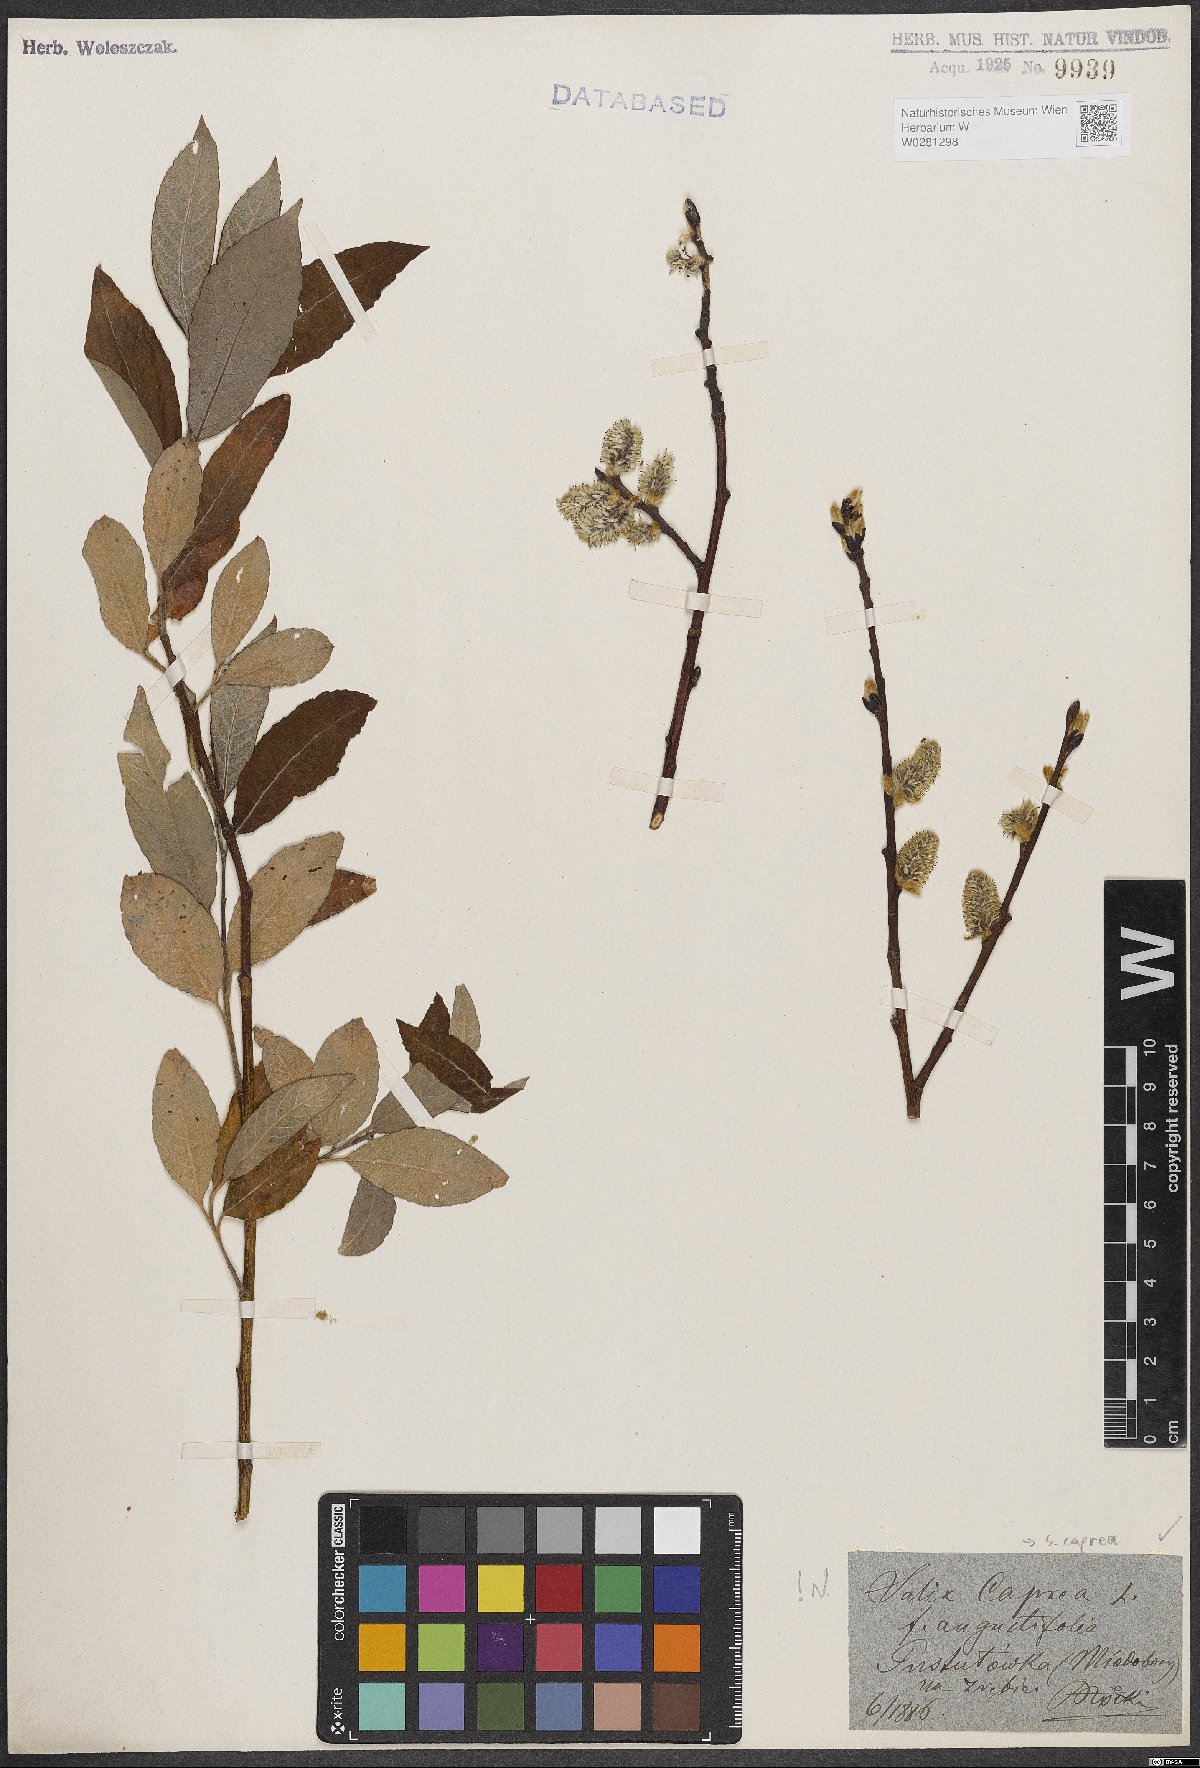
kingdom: Plantae
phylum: Tracheophyta
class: Magnoliopsida
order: Malpighiales
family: Salicaceae
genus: Salix
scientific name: Salix caprea
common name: Goat willow
